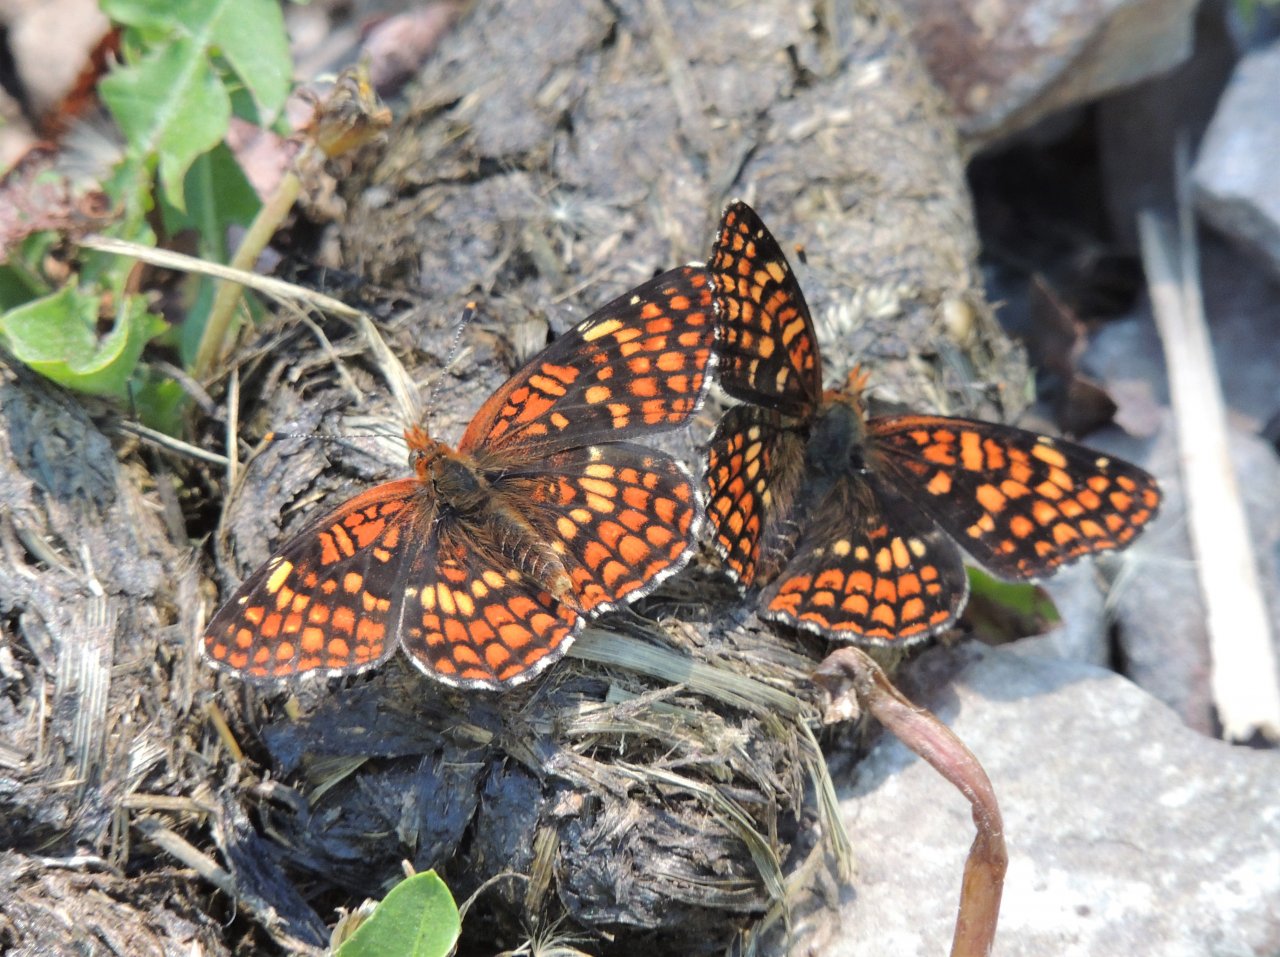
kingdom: Animalia
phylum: Arthropoda
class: Insecta
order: Lepidoptera
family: Nymphalidae
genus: Chlosyne
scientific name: Chlosyne palla
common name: Northern Checkerspot
